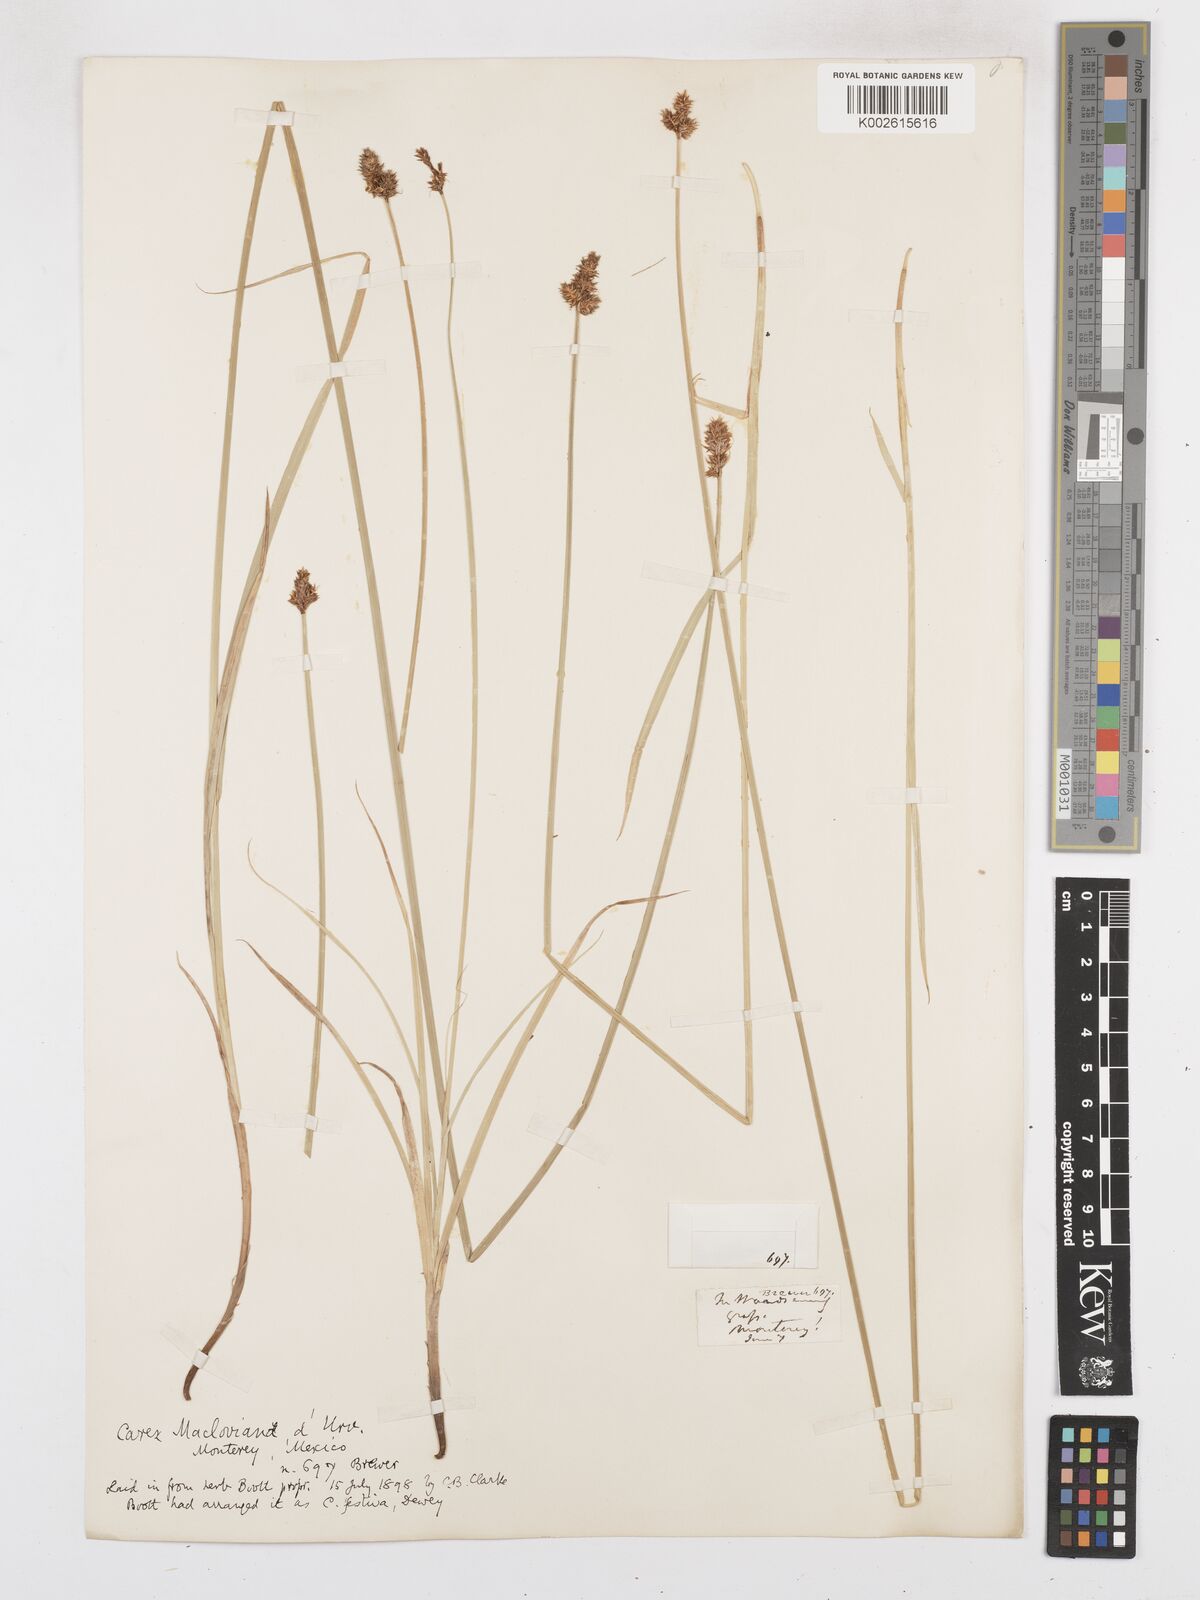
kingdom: Plantae
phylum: Tracheophyta
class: Liliopsida
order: Poales
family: Cyperaceae
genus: Carex
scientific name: Carex harfordii
